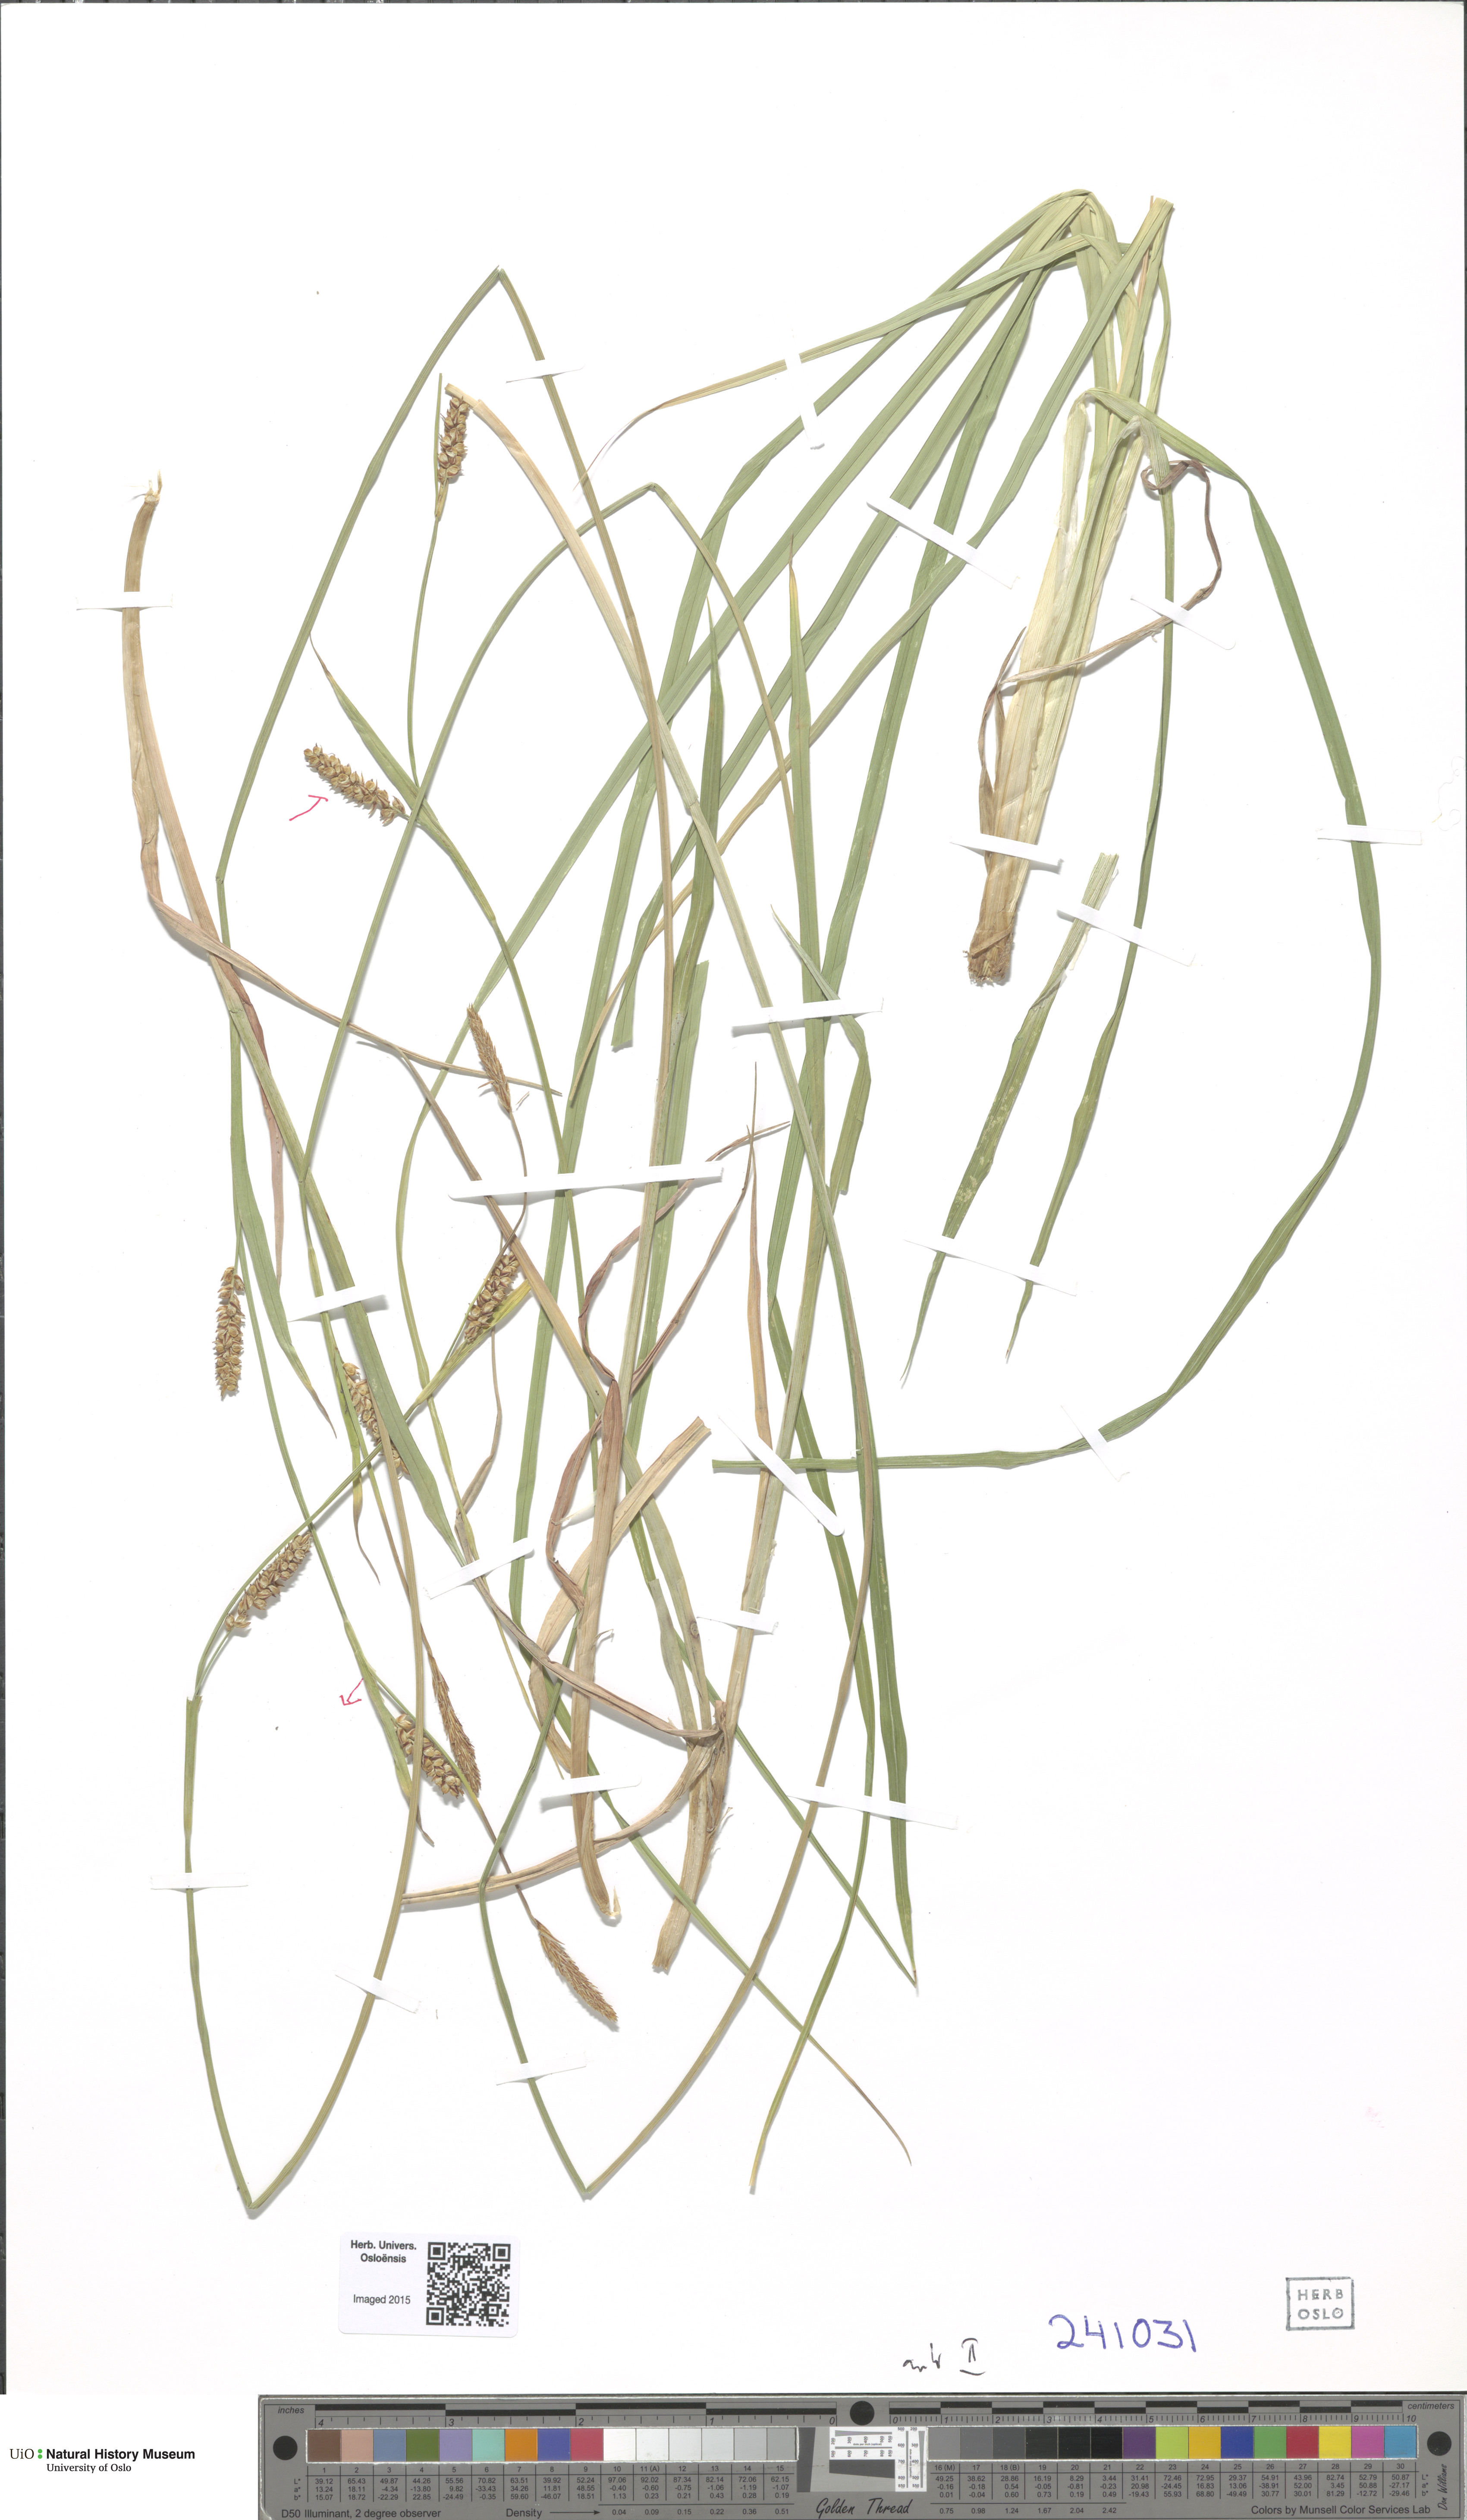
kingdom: Plantae
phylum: Tracheophyta
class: Liliopsida
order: Poales
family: Cyperaceae
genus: Carex
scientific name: Carex panicea
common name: Carnation sedge
